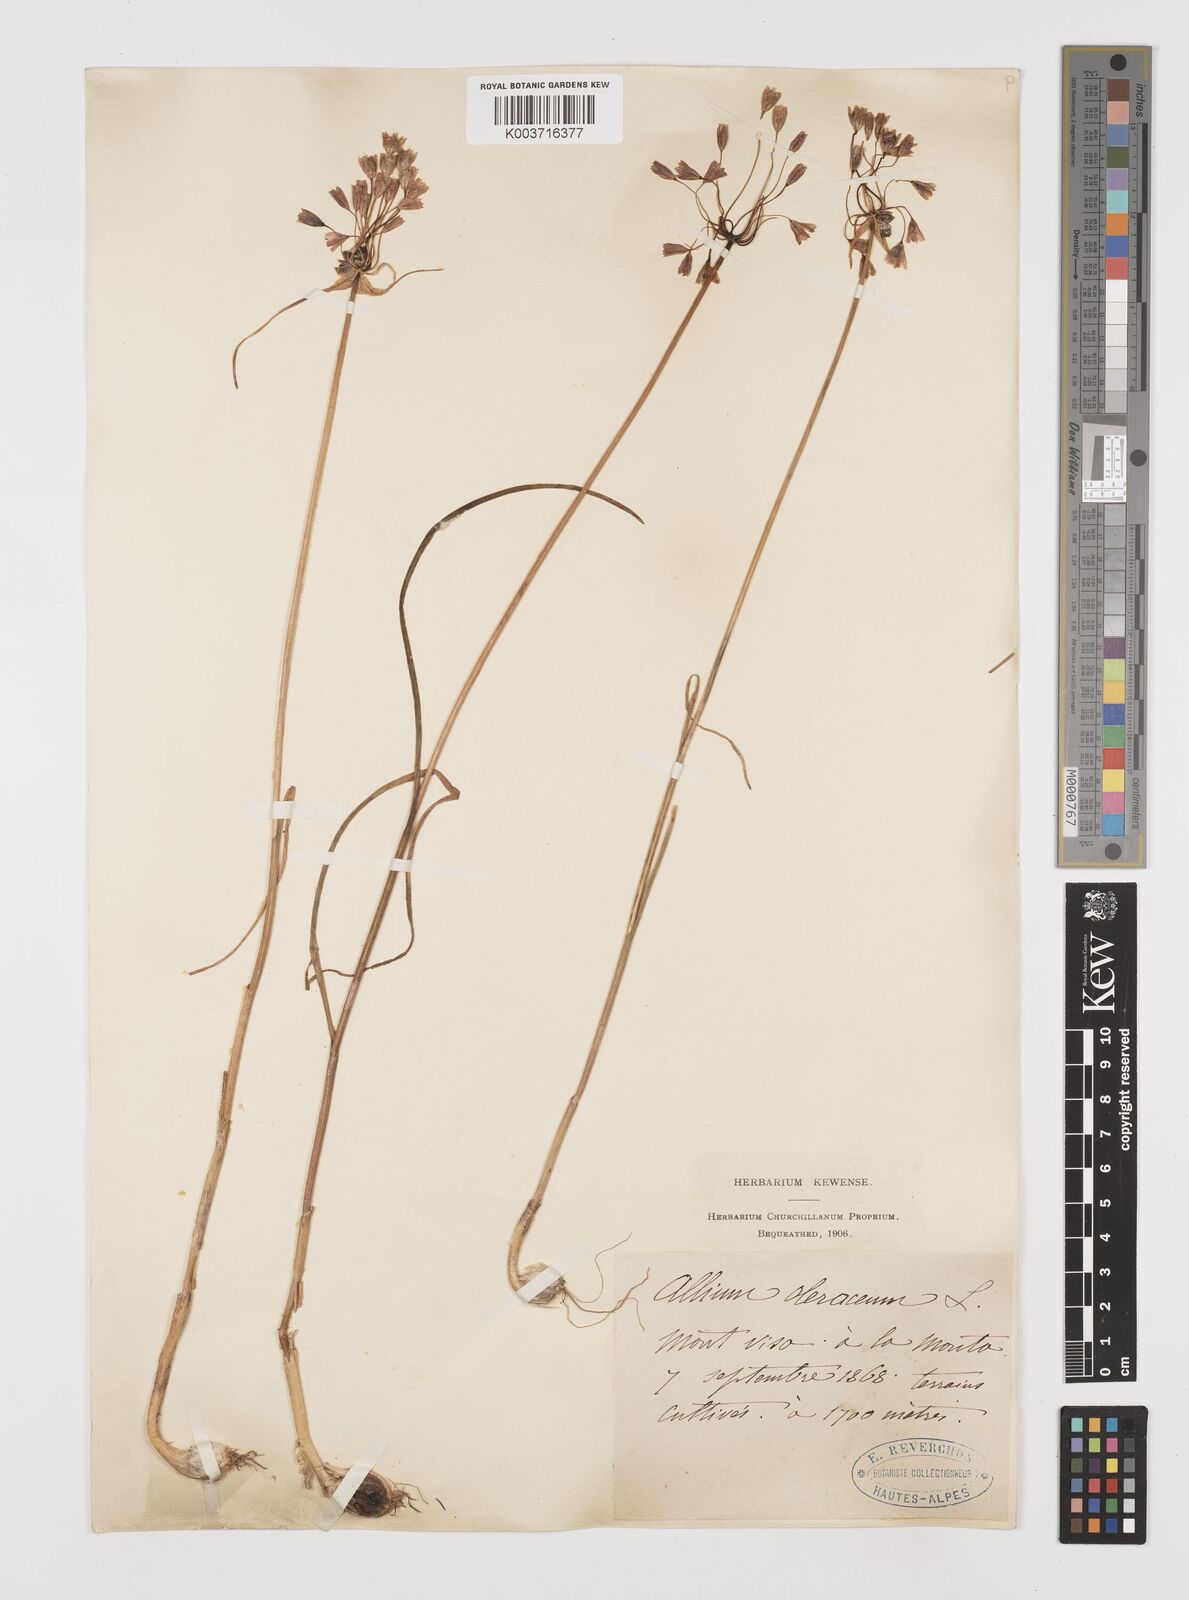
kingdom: Plantae
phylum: Tracheophyta
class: Liliopsida
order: Asparagales
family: Amaryllidaceae
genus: Allium
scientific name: Allium oleraceum
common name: Field garlic
